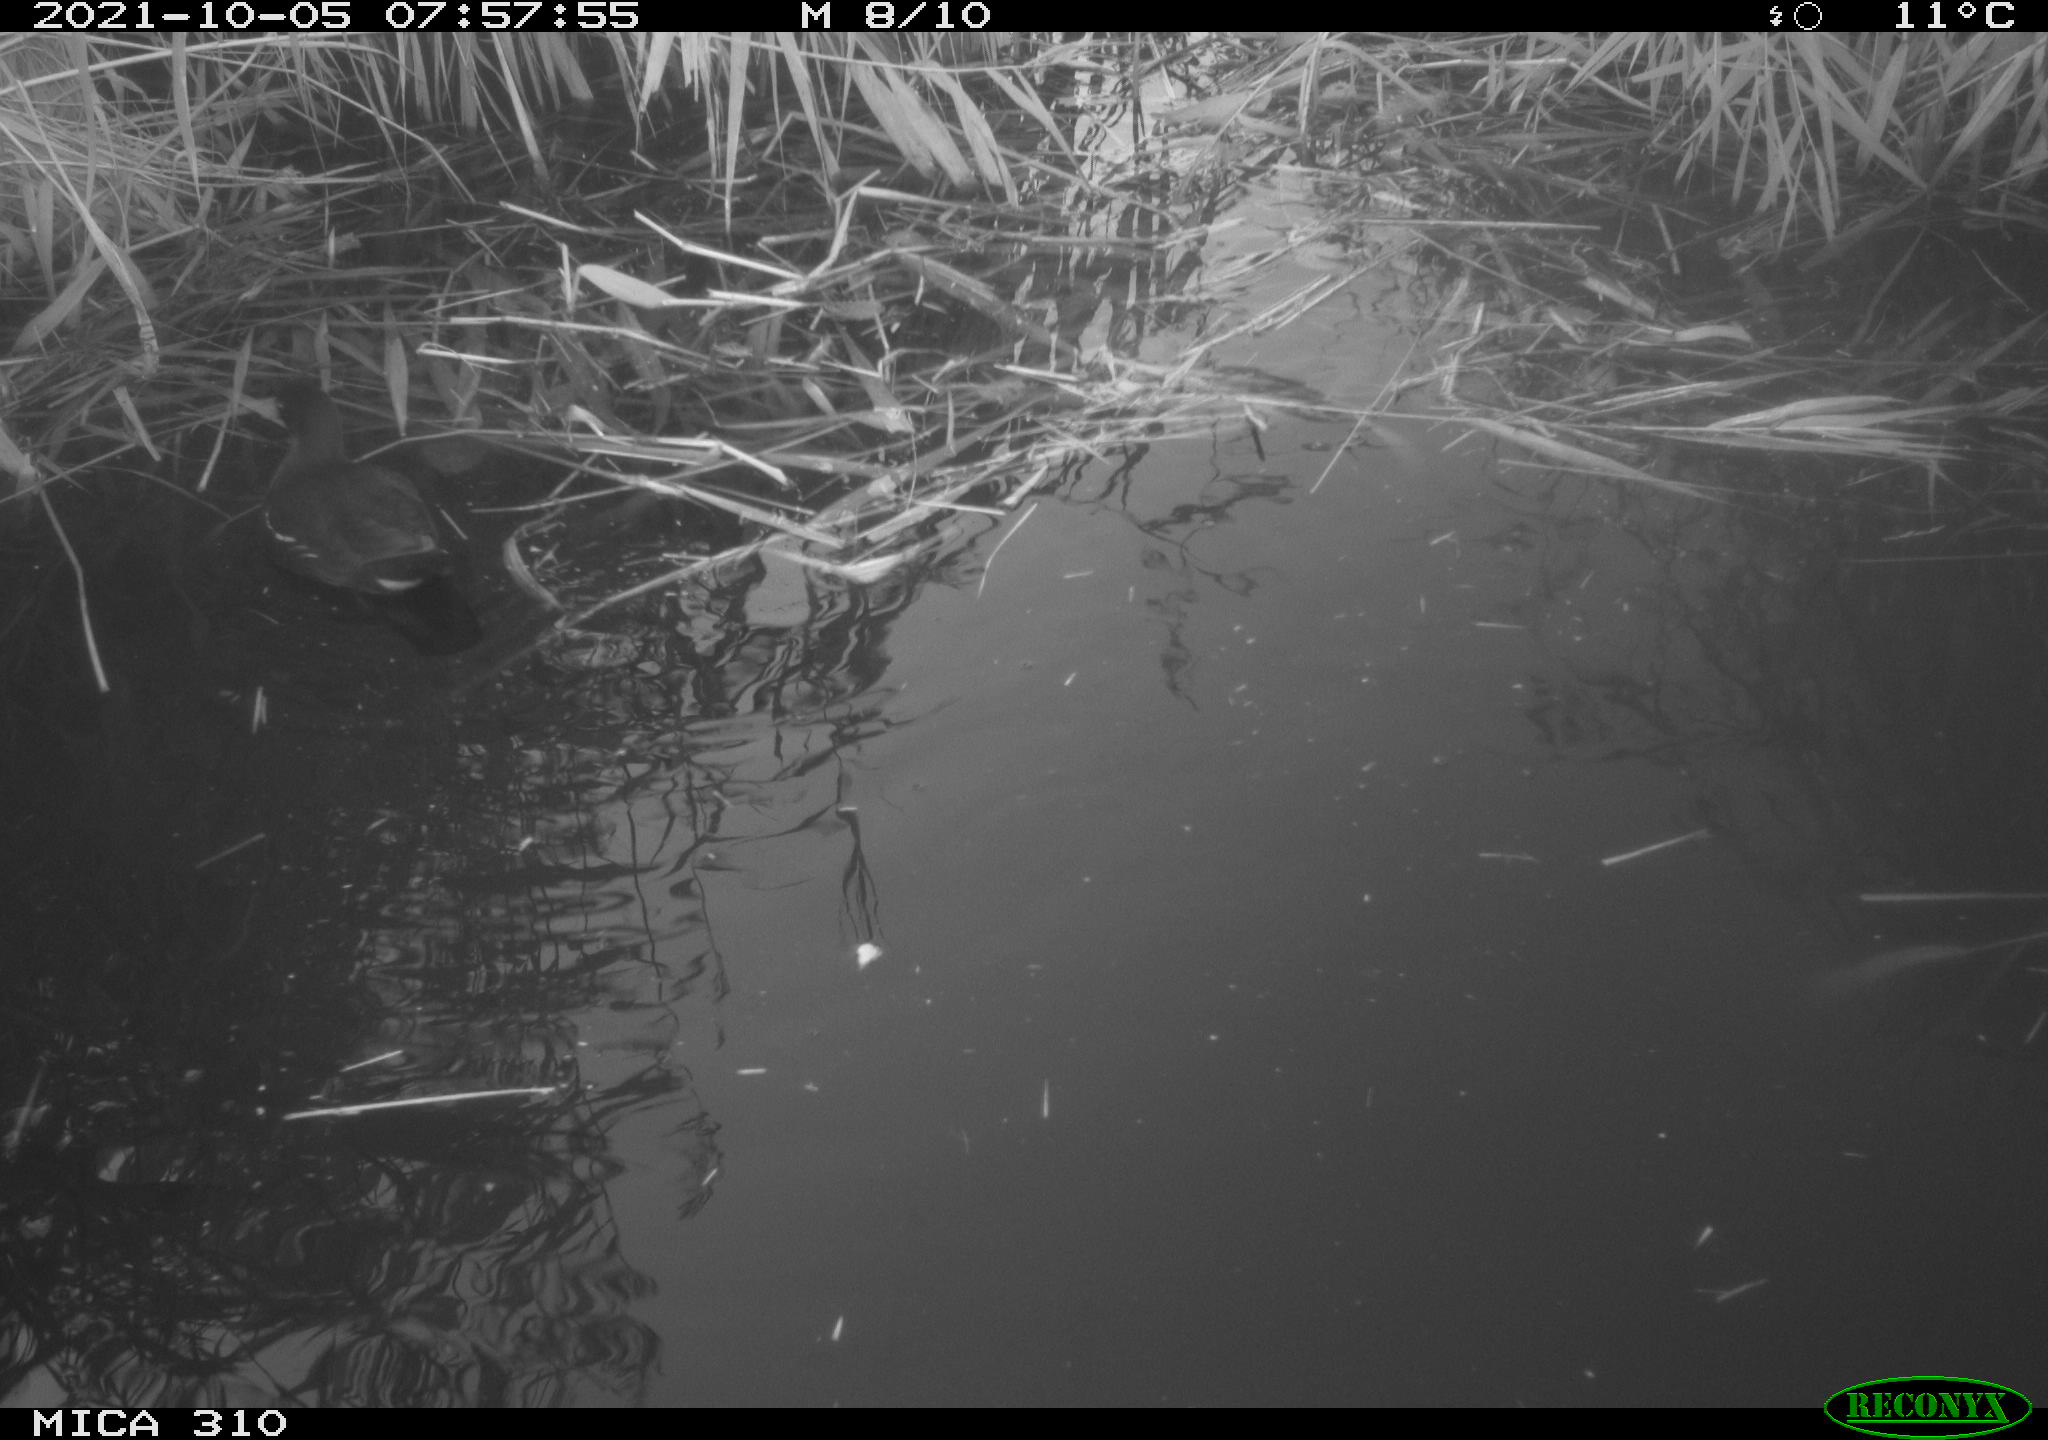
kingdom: Animalia
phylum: Chordata
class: Aves
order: Gruiformes
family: Rallidae
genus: Gallinula
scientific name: Gallinula chloropus
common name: Common moorhen
